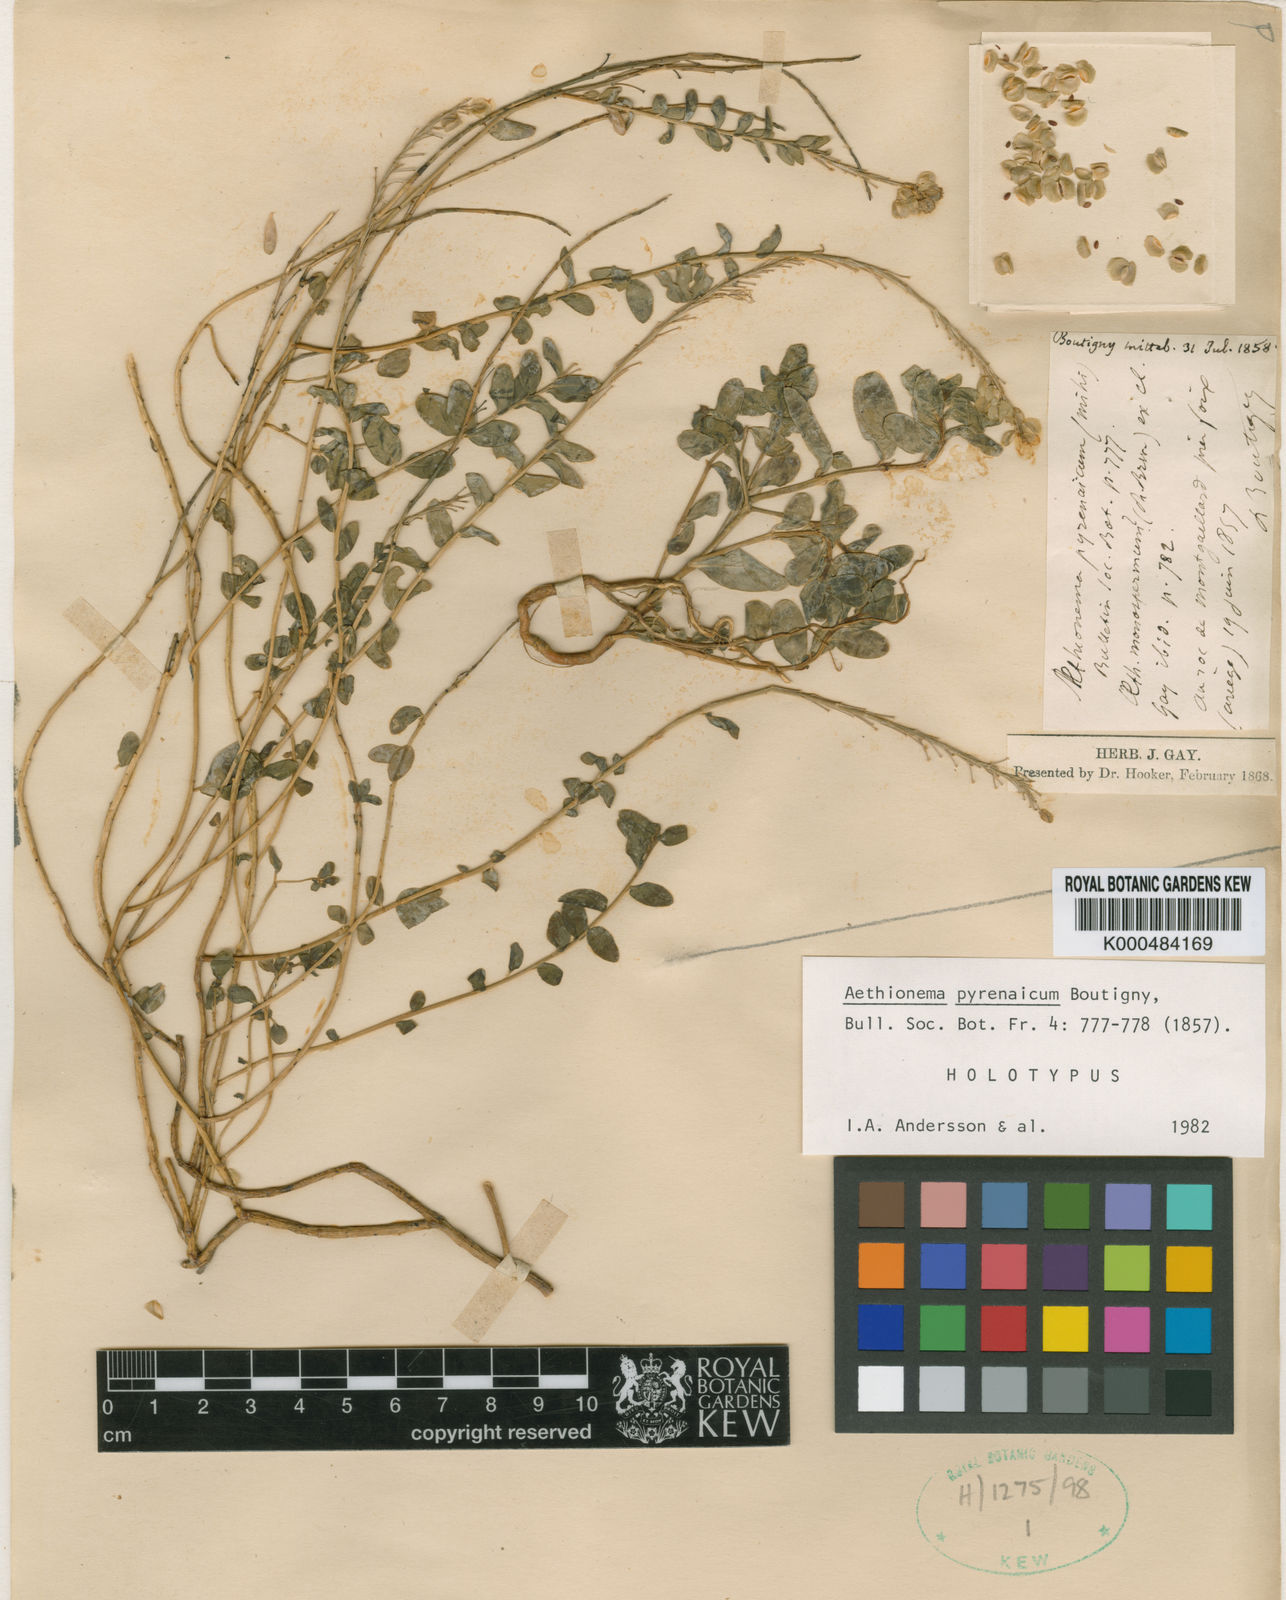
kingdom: Plantae
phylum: Tracheophyta
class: Magnoliopsida
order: Brassicales
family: Brassicaceae
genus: Aethionema
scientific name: Aethionema
